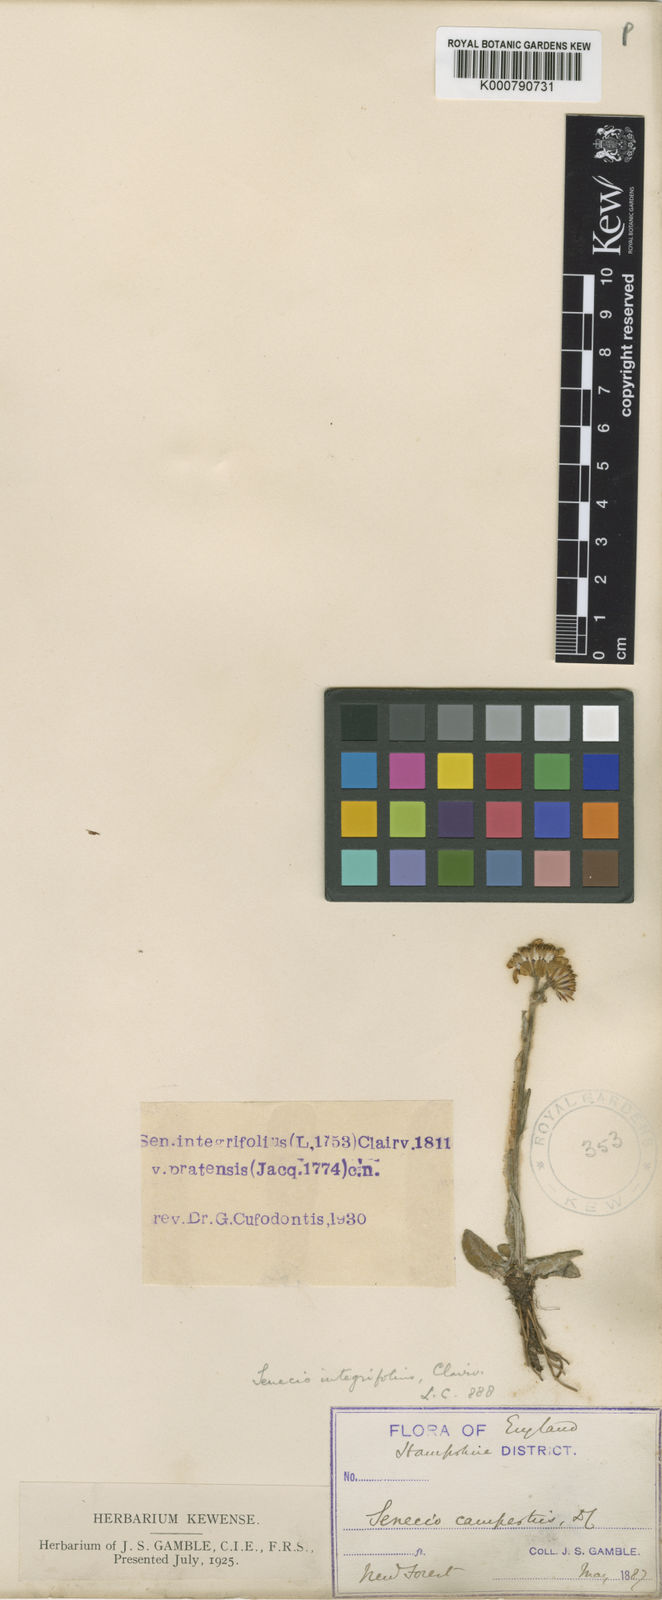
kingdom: Plantae
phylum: Tracheophyta
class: Magnoliopsida
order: Asterales
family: Asteraceae
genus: Tephroseris
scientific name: Tephroseris integrifolia
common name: Field fleawort
